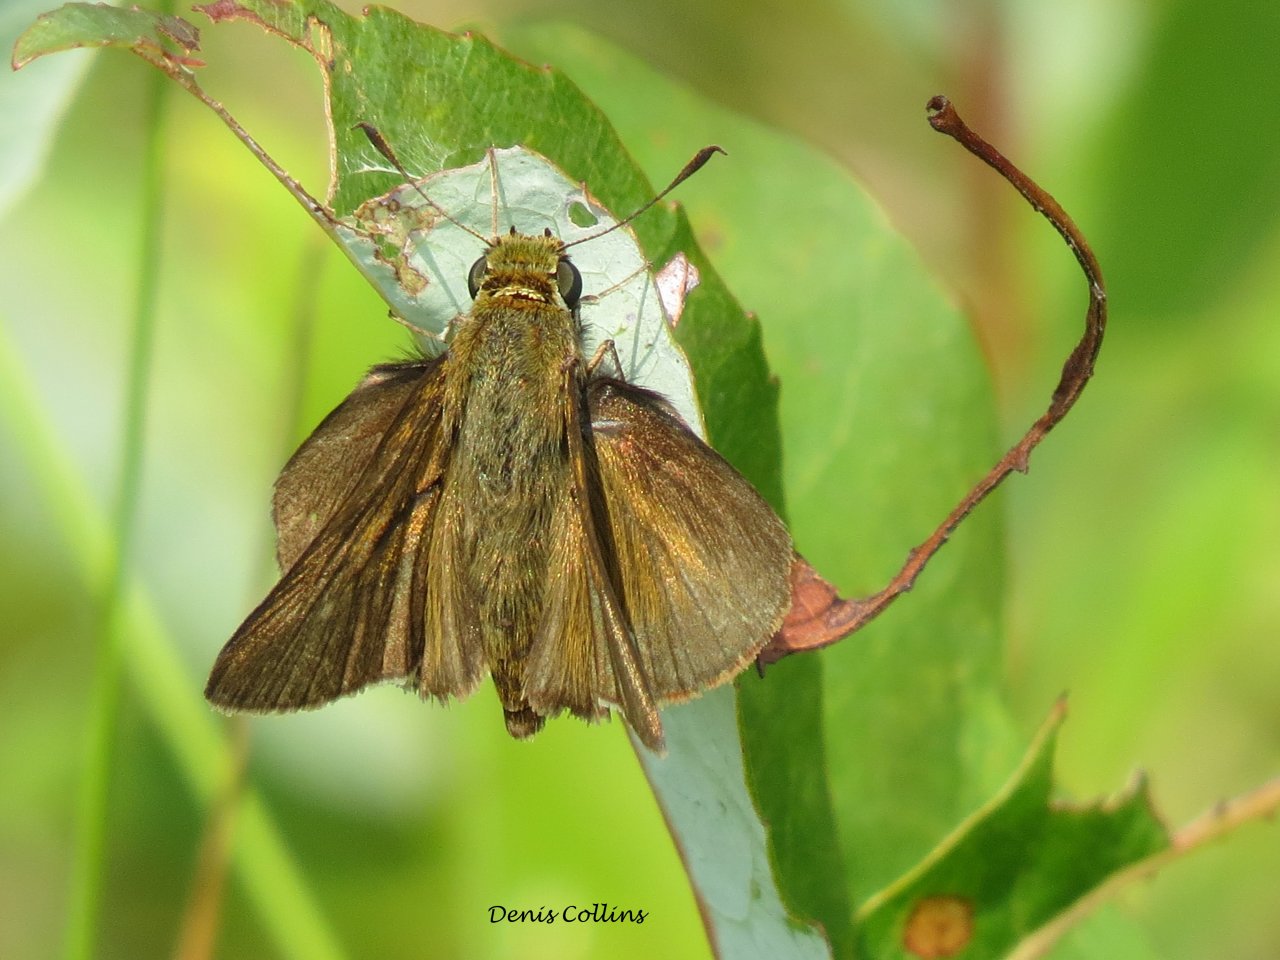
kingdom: Animalia
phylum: Arthropoda
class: Insecta
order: Lepidoptera
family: Hesperiidae
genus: Euphyes
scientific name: Euphyes vestris
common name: Dun Skipper
